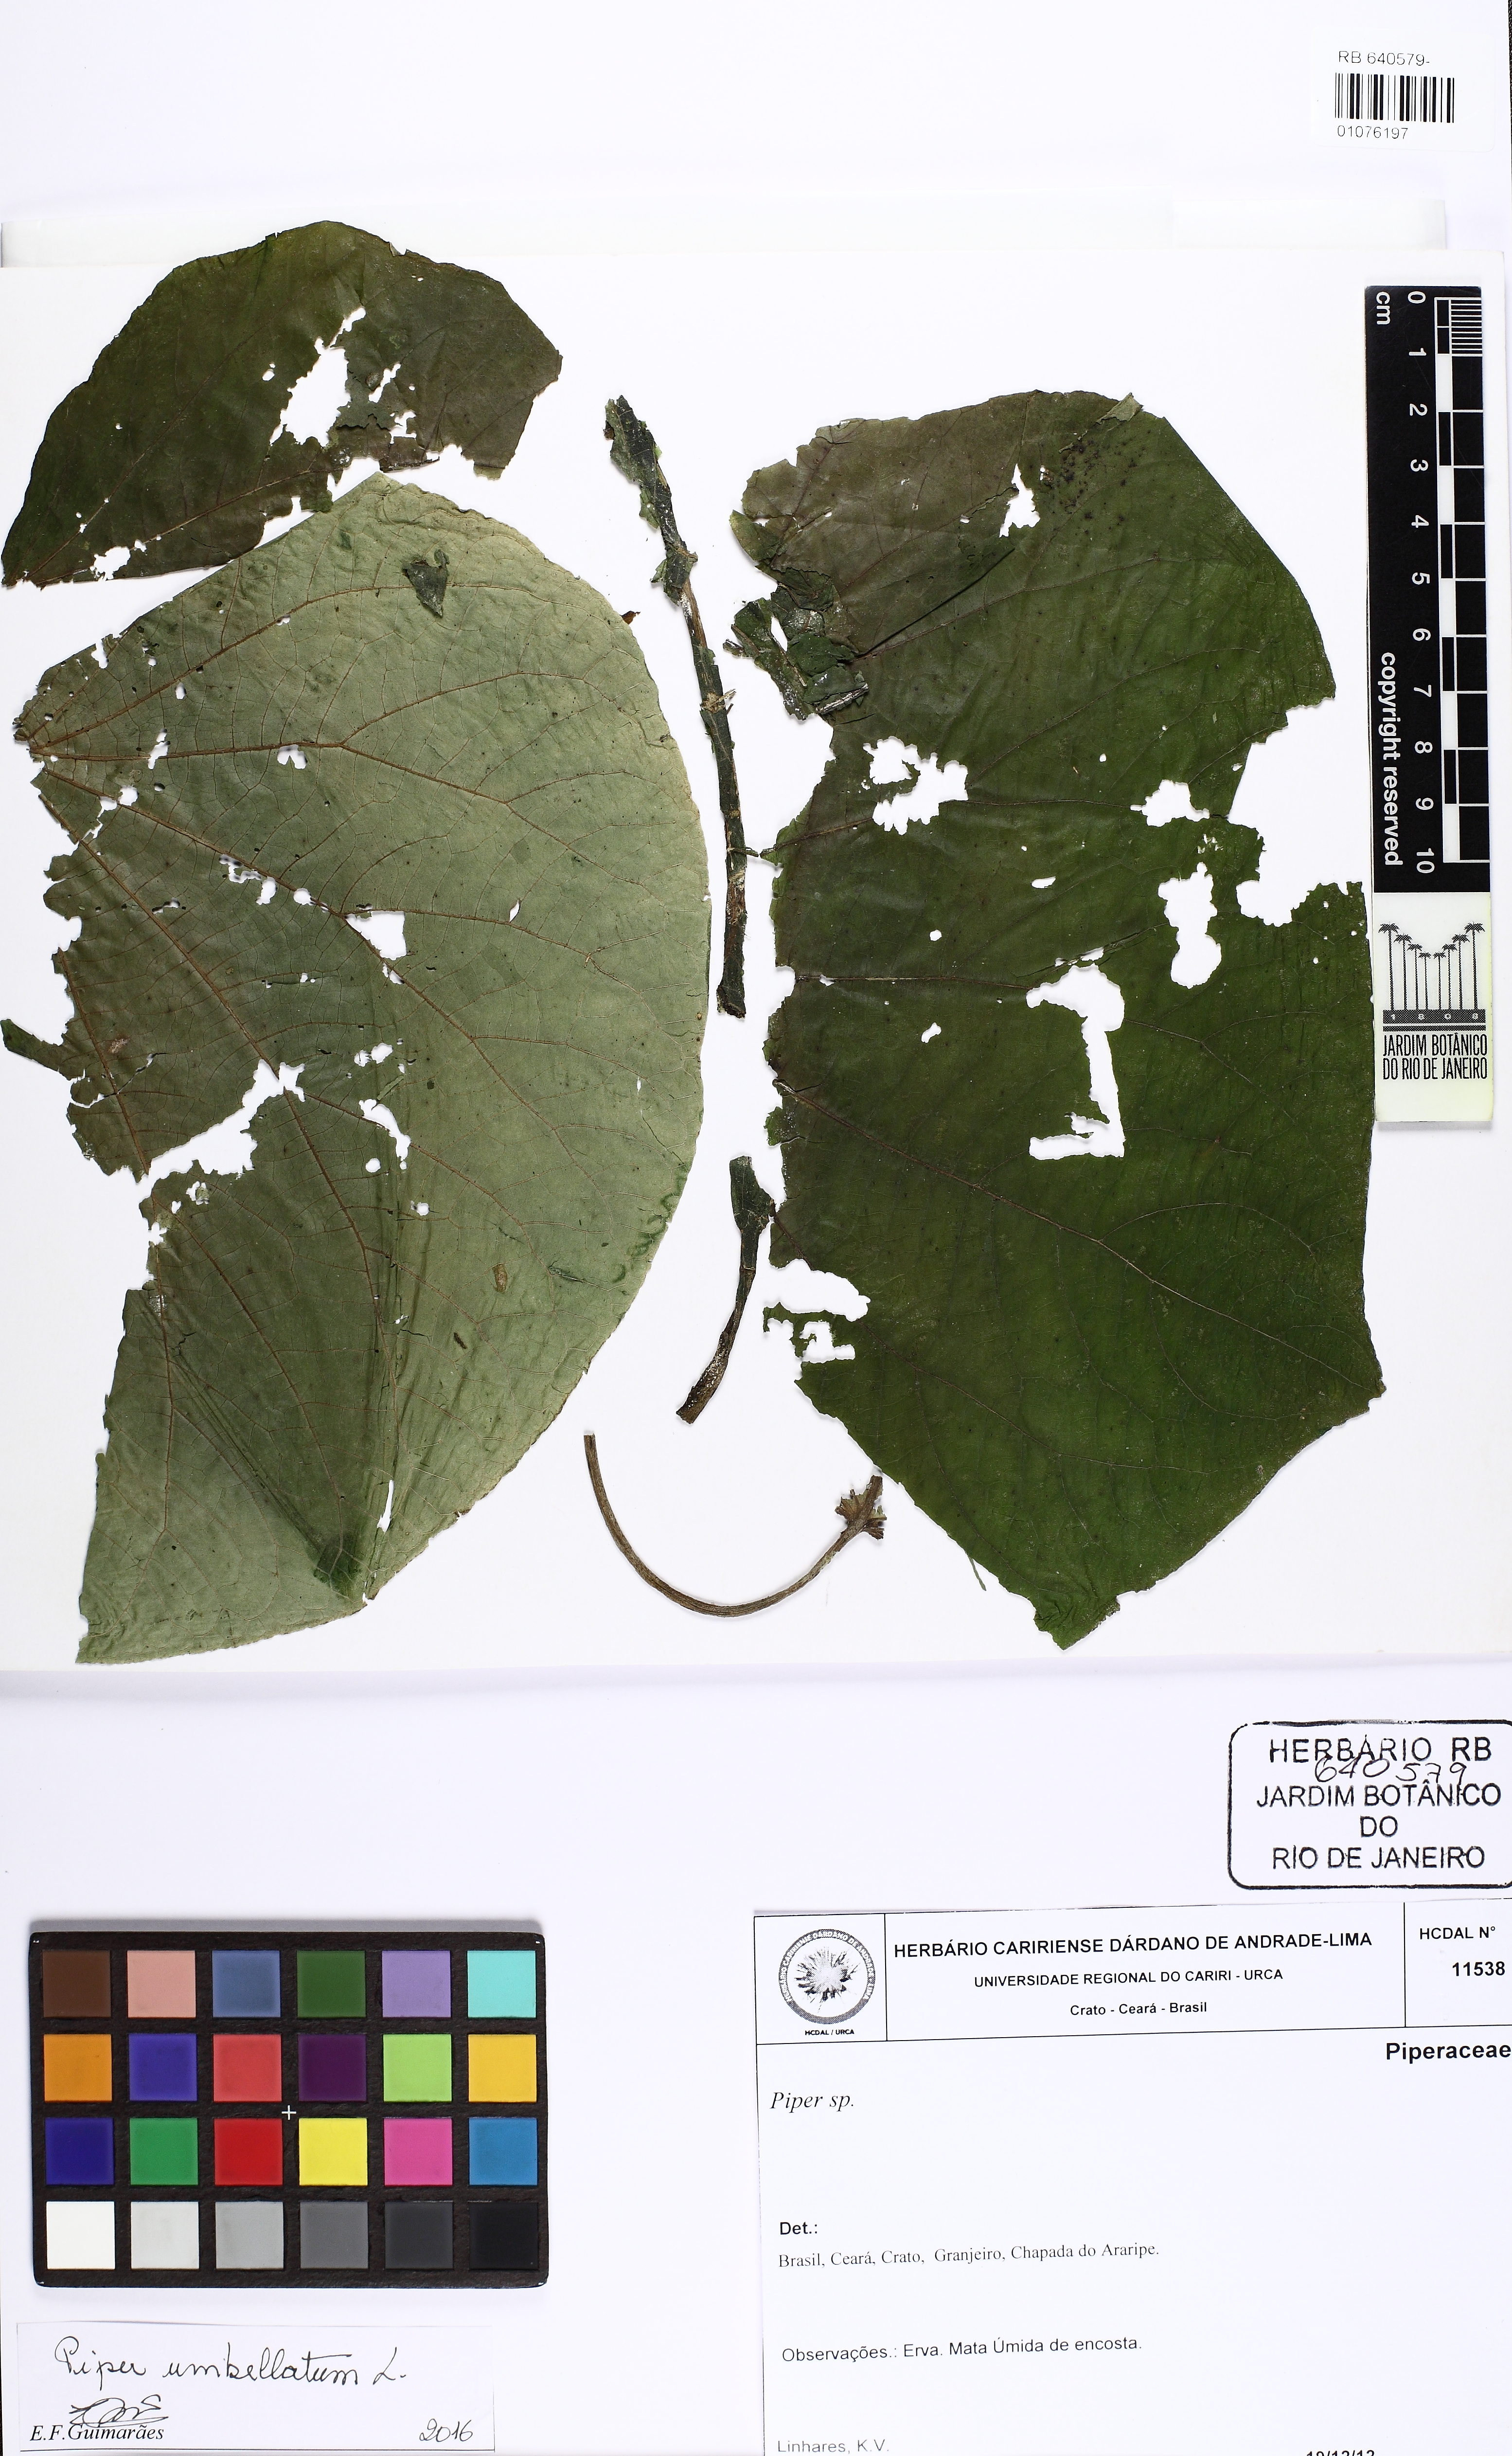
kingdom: Plantae
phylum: Tracheophyta
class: Magnoliopsida
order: Piperales
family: Piperaceae
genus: Piper
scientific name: Piper umbellatum
